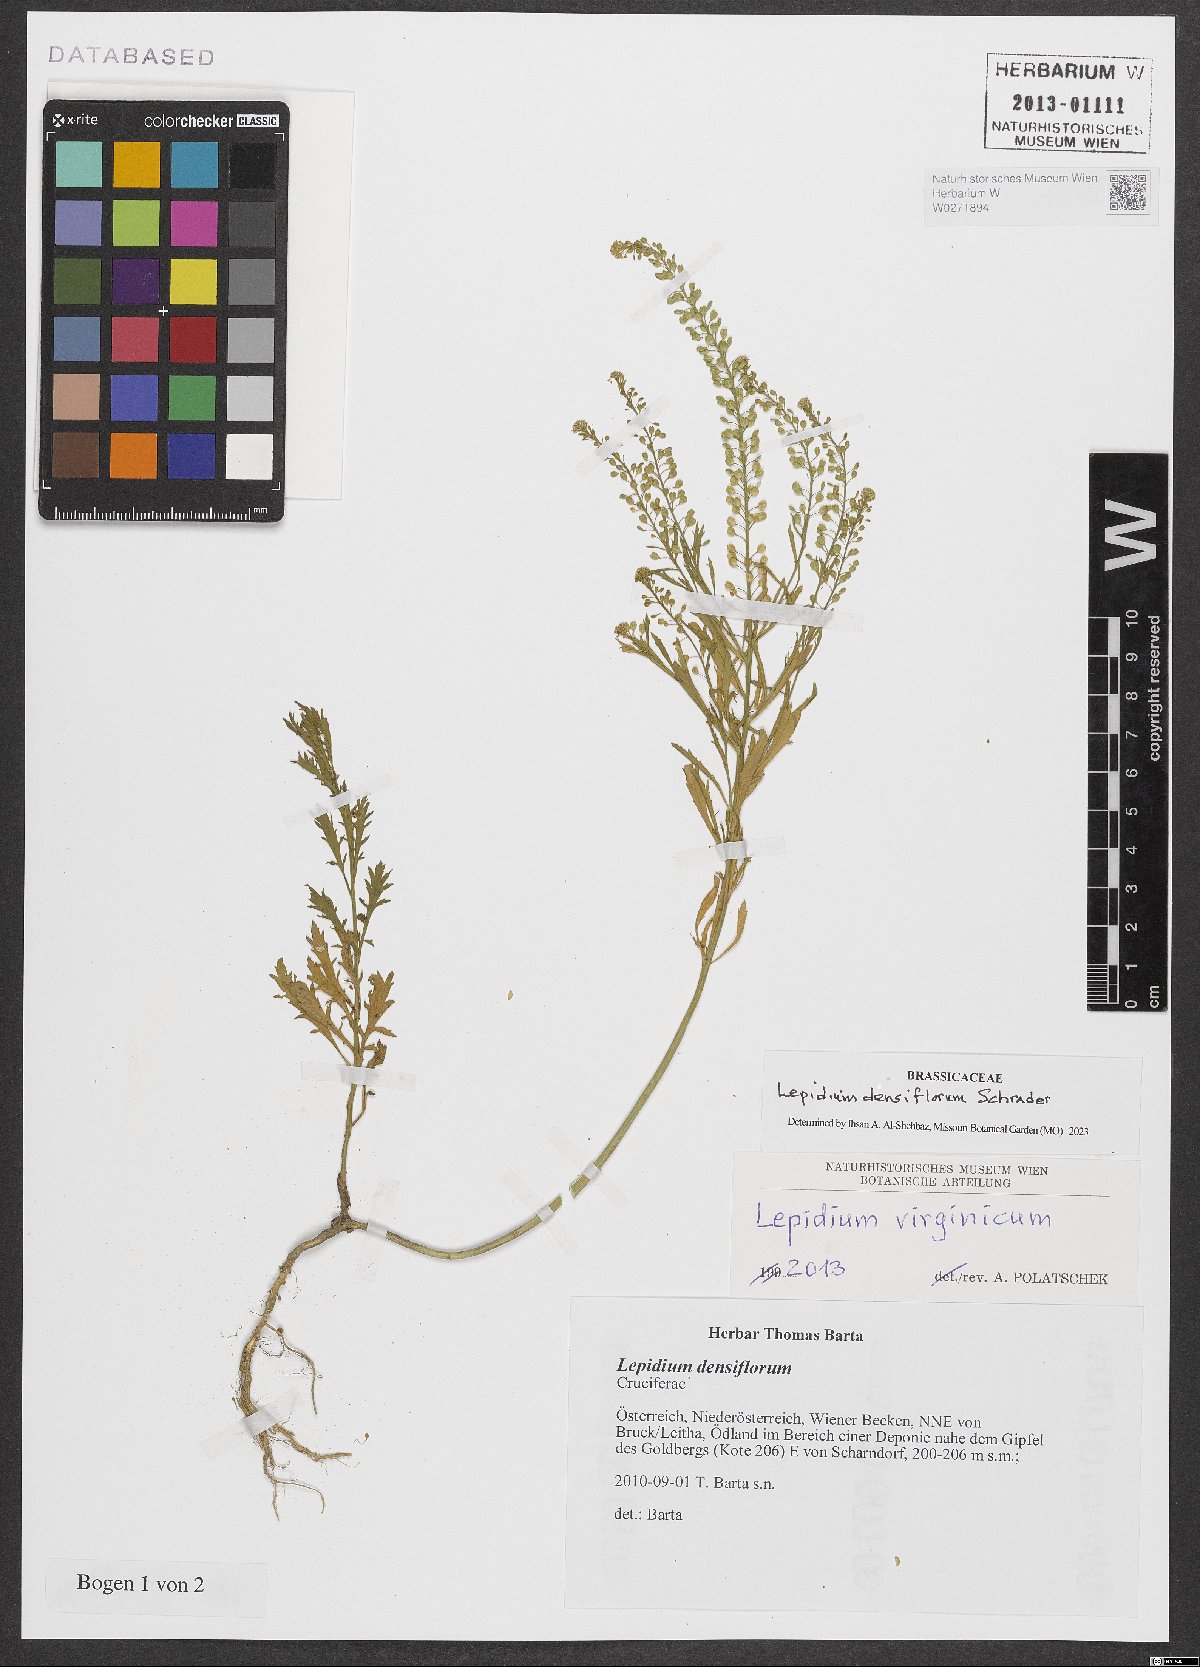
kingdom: Plantae
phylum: Tracheophyta
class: Magnoliopsida
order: Brassicales
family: Brassicaceae
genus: Lepidium
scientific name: Lepidium densiflorum
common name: Miner's pepperwort
